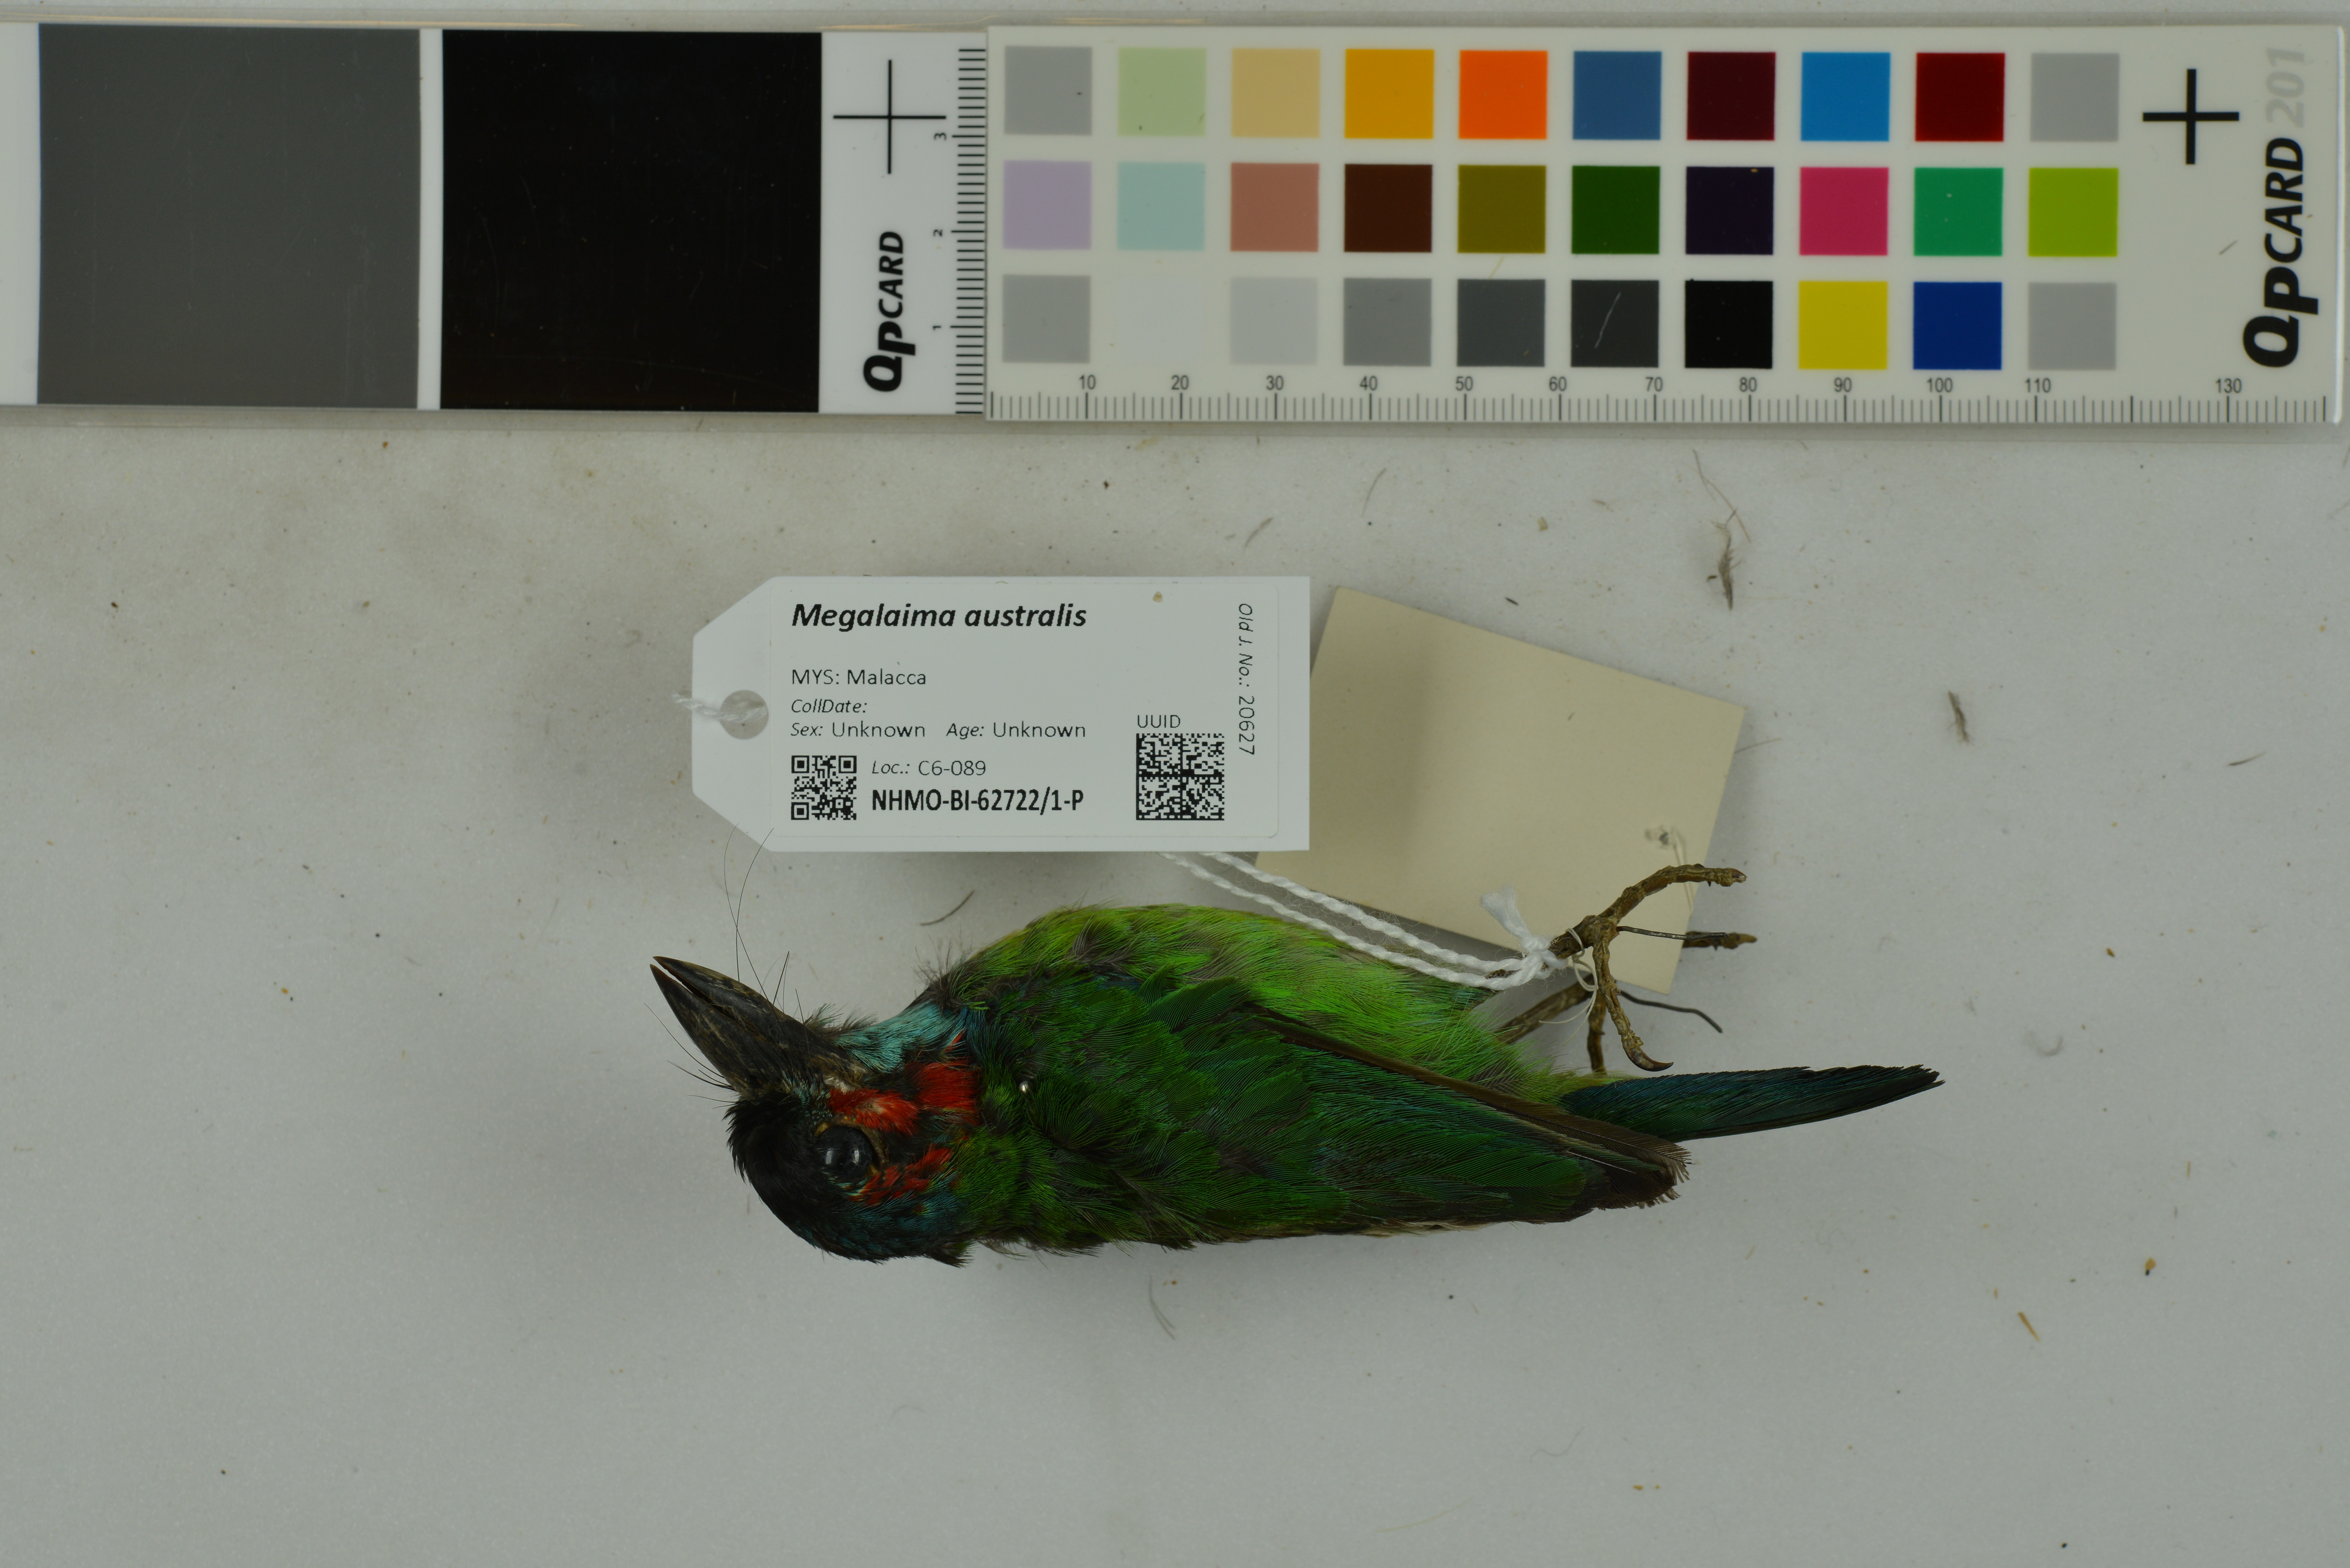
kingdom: Animalia
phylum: Chordata
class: Aves
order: Piciformes
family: Megalaimidae
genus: Psilopogon
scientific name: Psilopogon duvaucelii
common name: Blue-eared barbet
